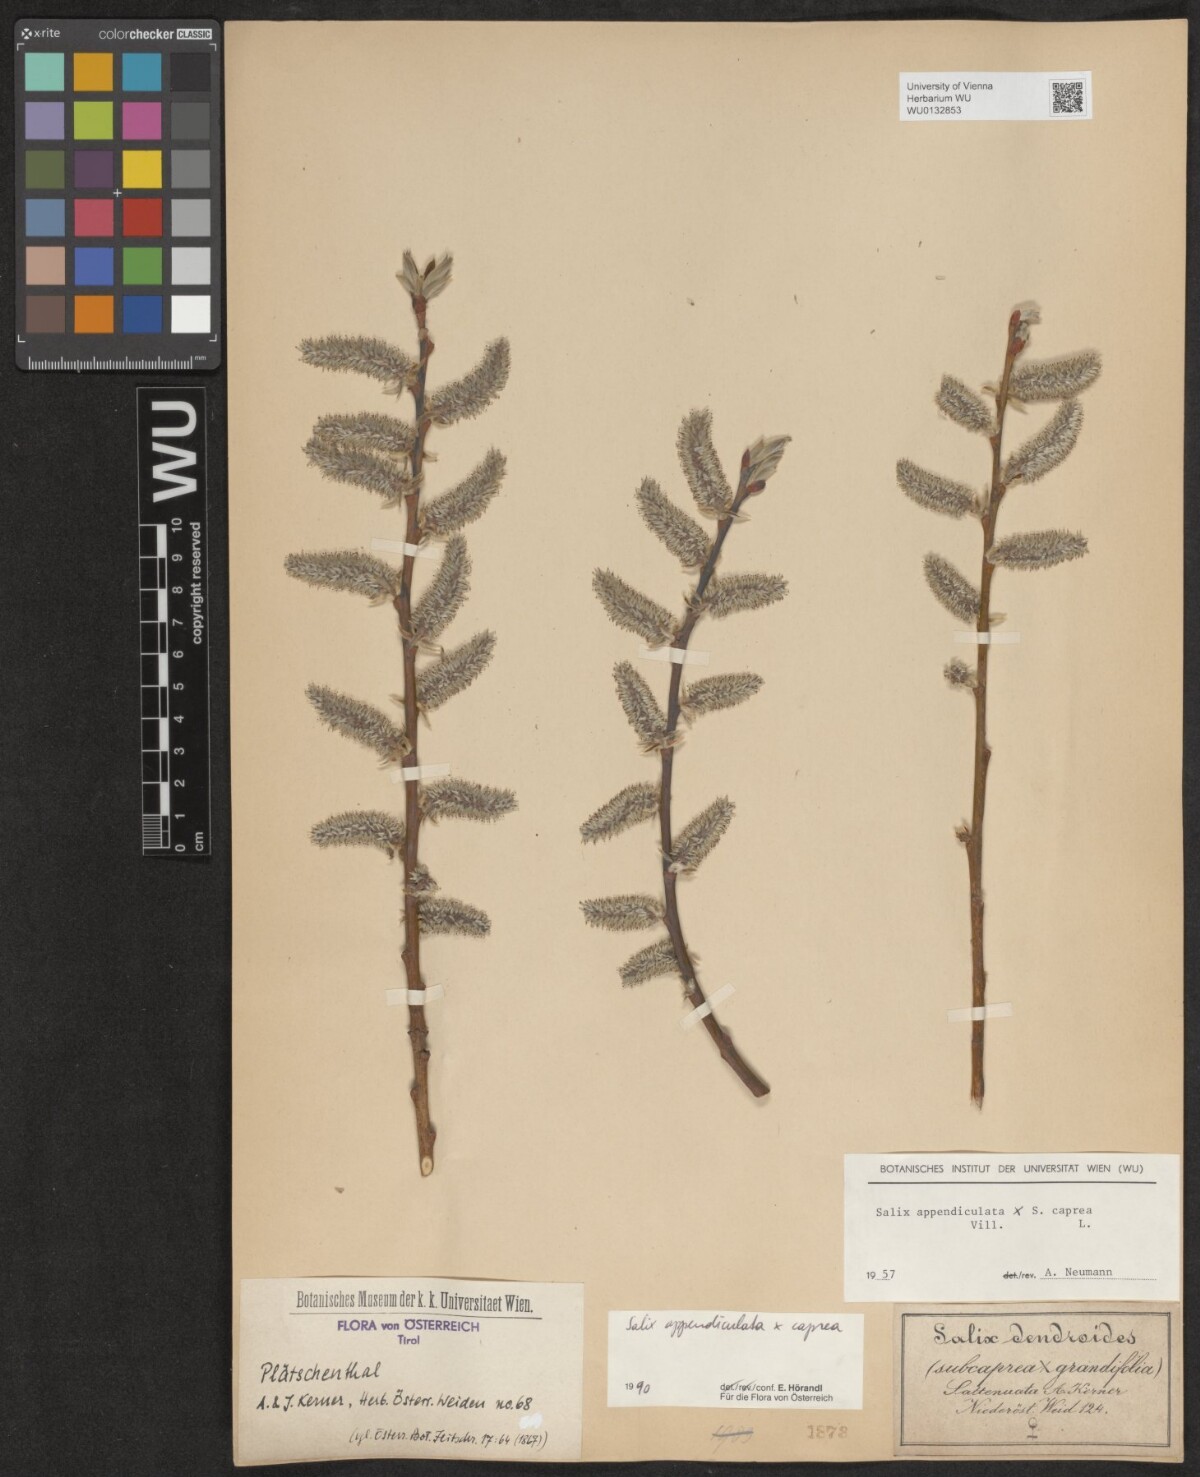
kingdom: Plantae
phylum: Tracheophyta
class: Magnoliopsida
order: Malpighiales
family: Salicaceae
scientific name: Salicaceae
